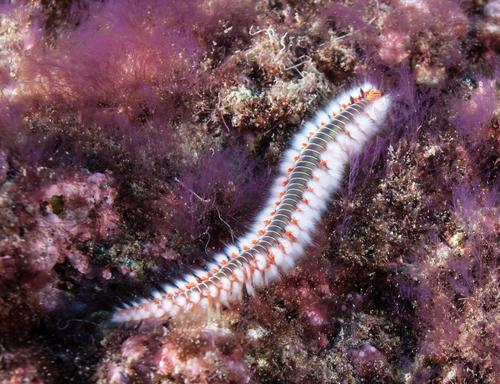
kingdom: Animalia
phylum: Annelida
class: Polychaeta
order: Amphinomida
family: Amphinomidae
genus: Hermodice
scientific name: Hermodice carunculata
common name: Bearded fireworm
